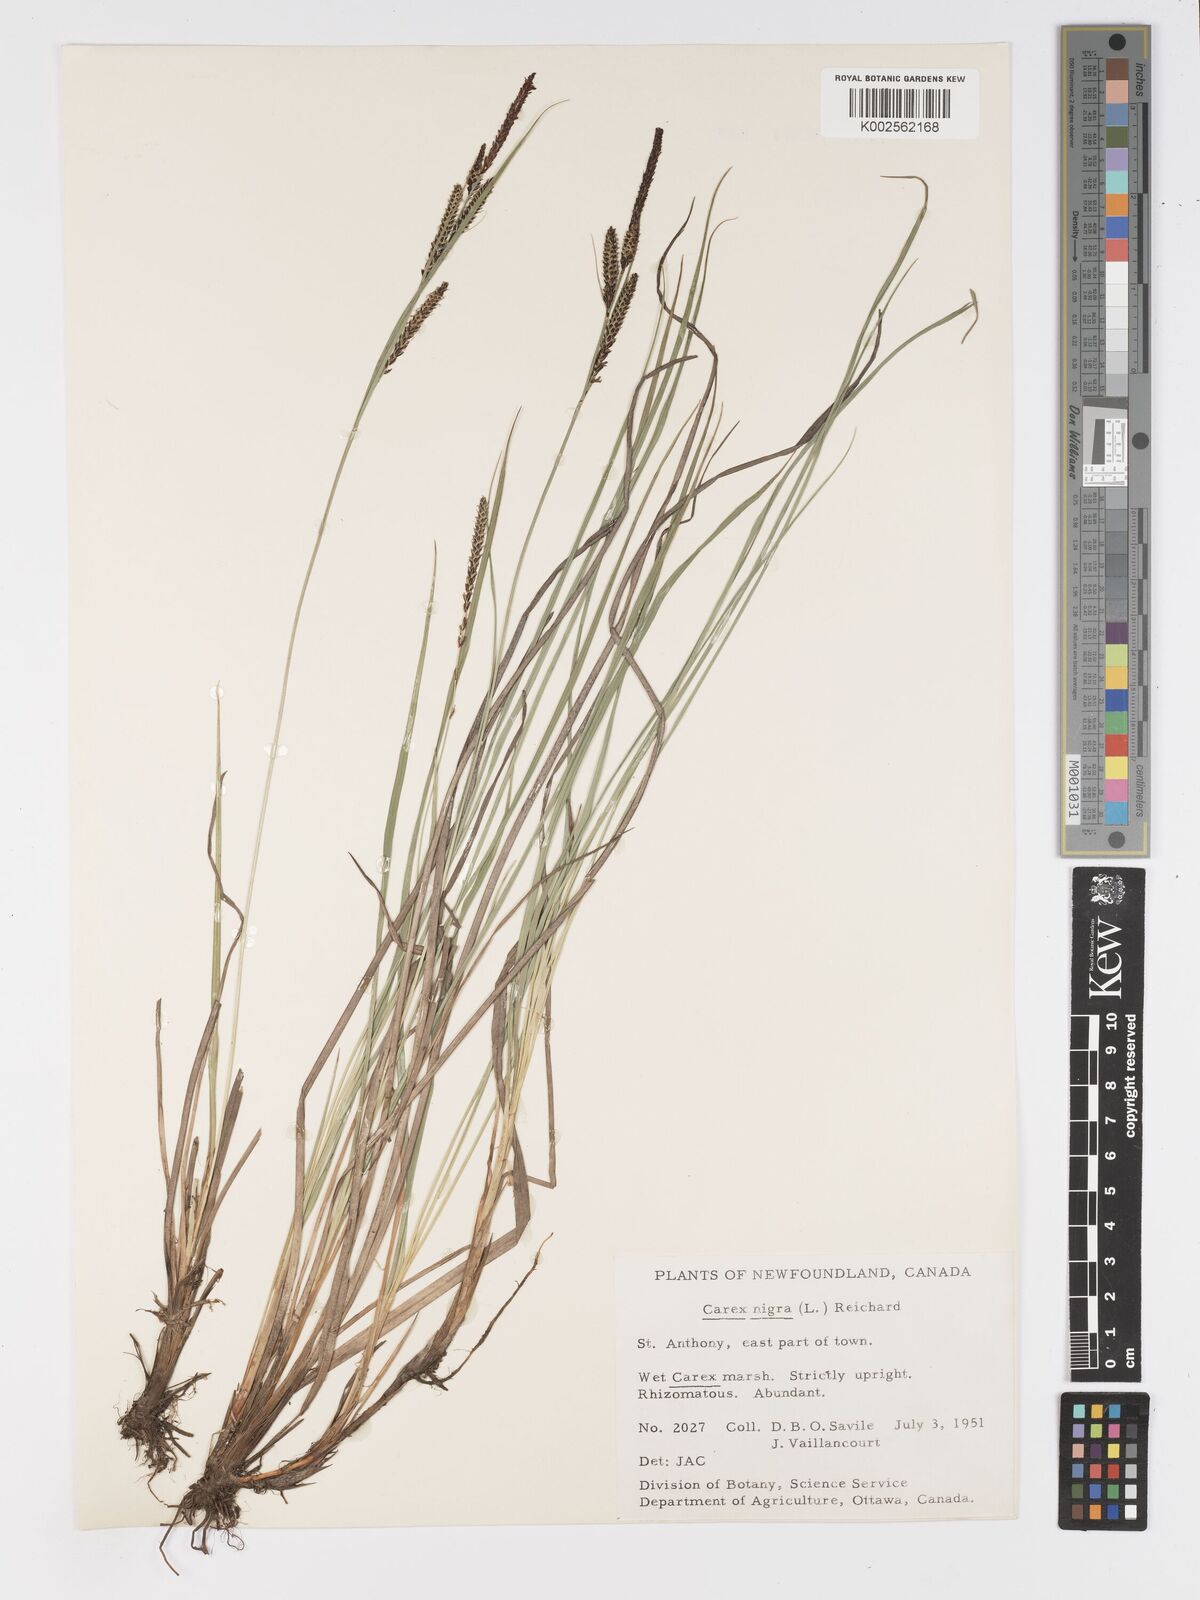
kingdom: Plantae
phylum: Tracheophyta
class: Liliopsida
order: Poales
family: Cyperaceae
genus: Carex
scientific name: Carex nigra
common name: Common sedge
